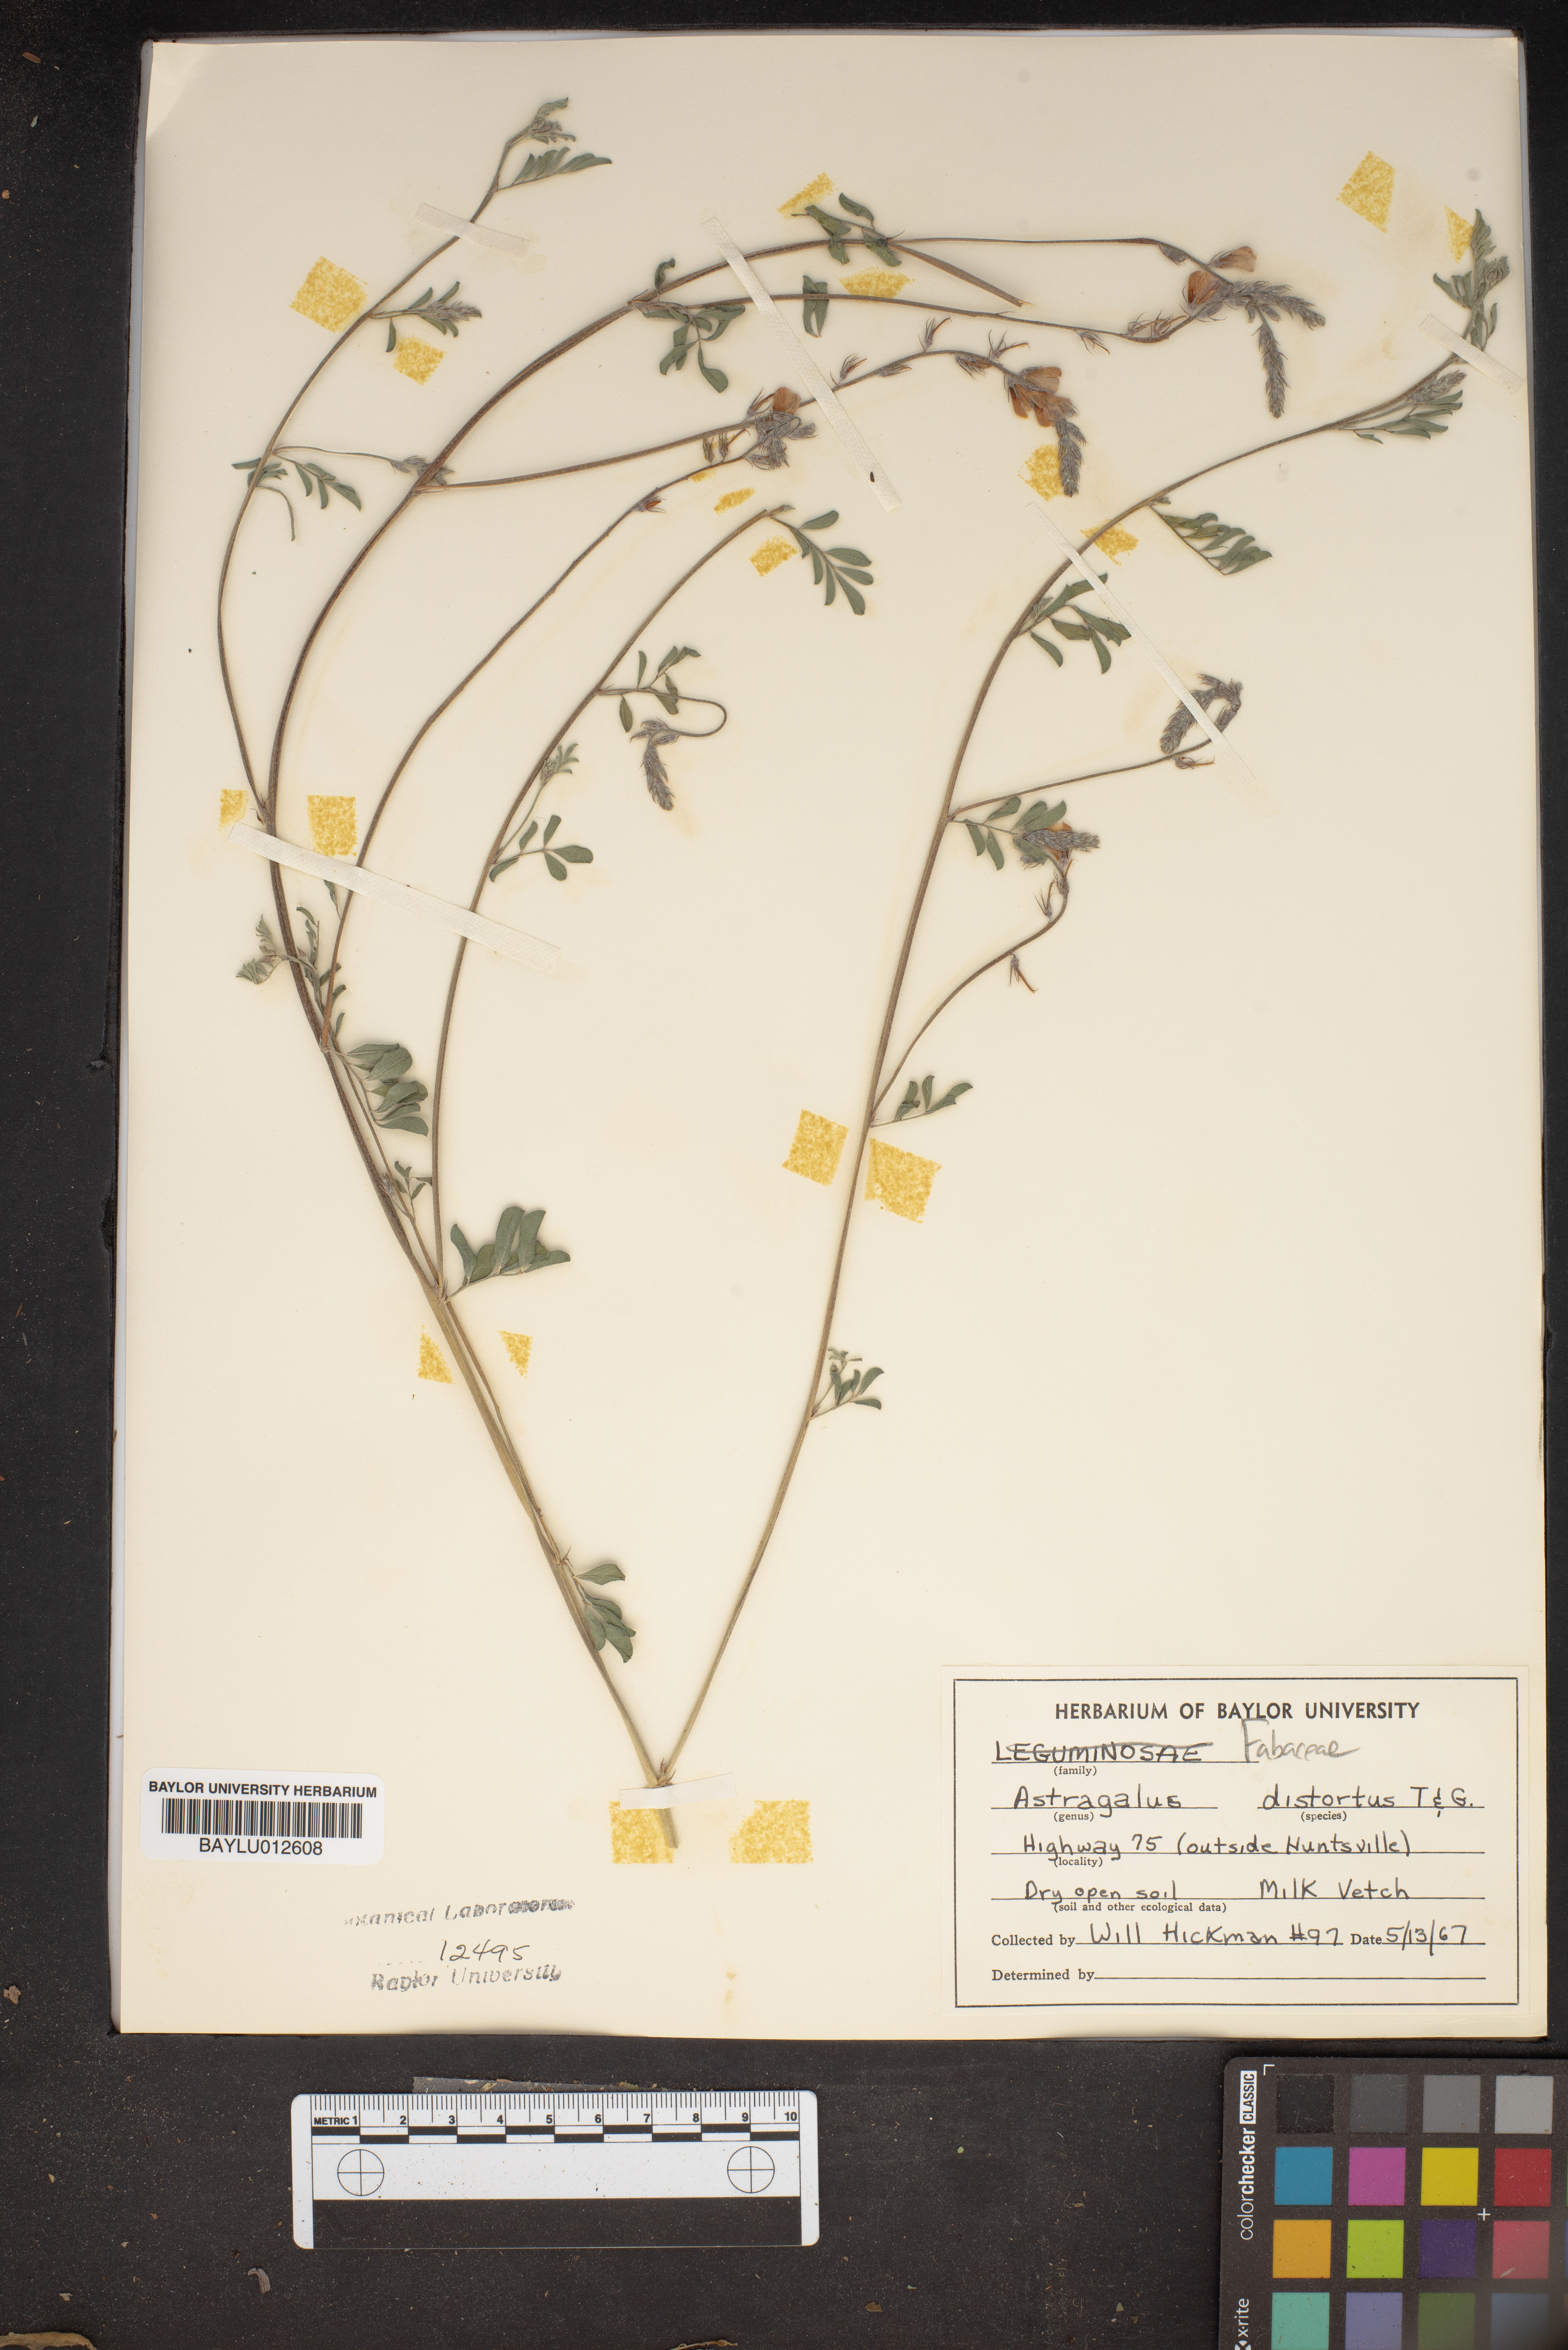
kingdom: Plantae
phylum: Tracheophyta
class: Magnoliopsida
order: Fabales
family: Fabaceae
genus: Astragalus
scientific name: Astragalus distortus
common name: Ozark milk-vetch
